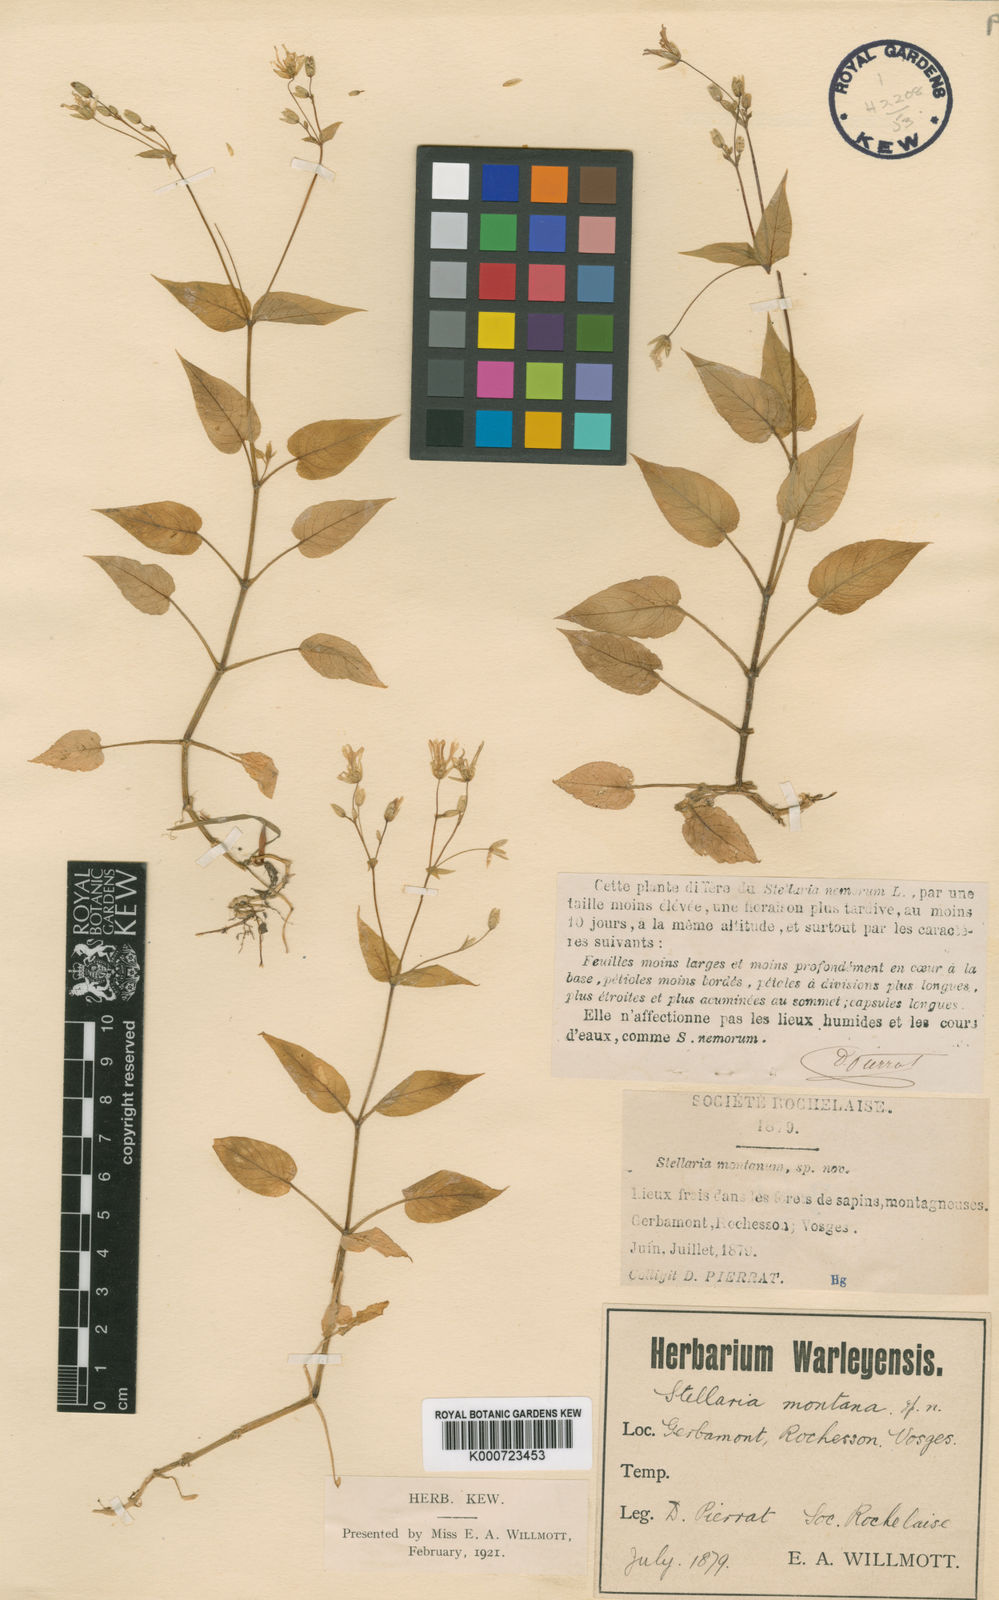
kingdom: Plantae
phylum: Tracheophyta
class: Magnoliopsida
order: Caryophyllales
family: Caryophyllaceae
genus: Stellaria
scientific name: Stellaria nemorum
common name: Wood stitchwort
